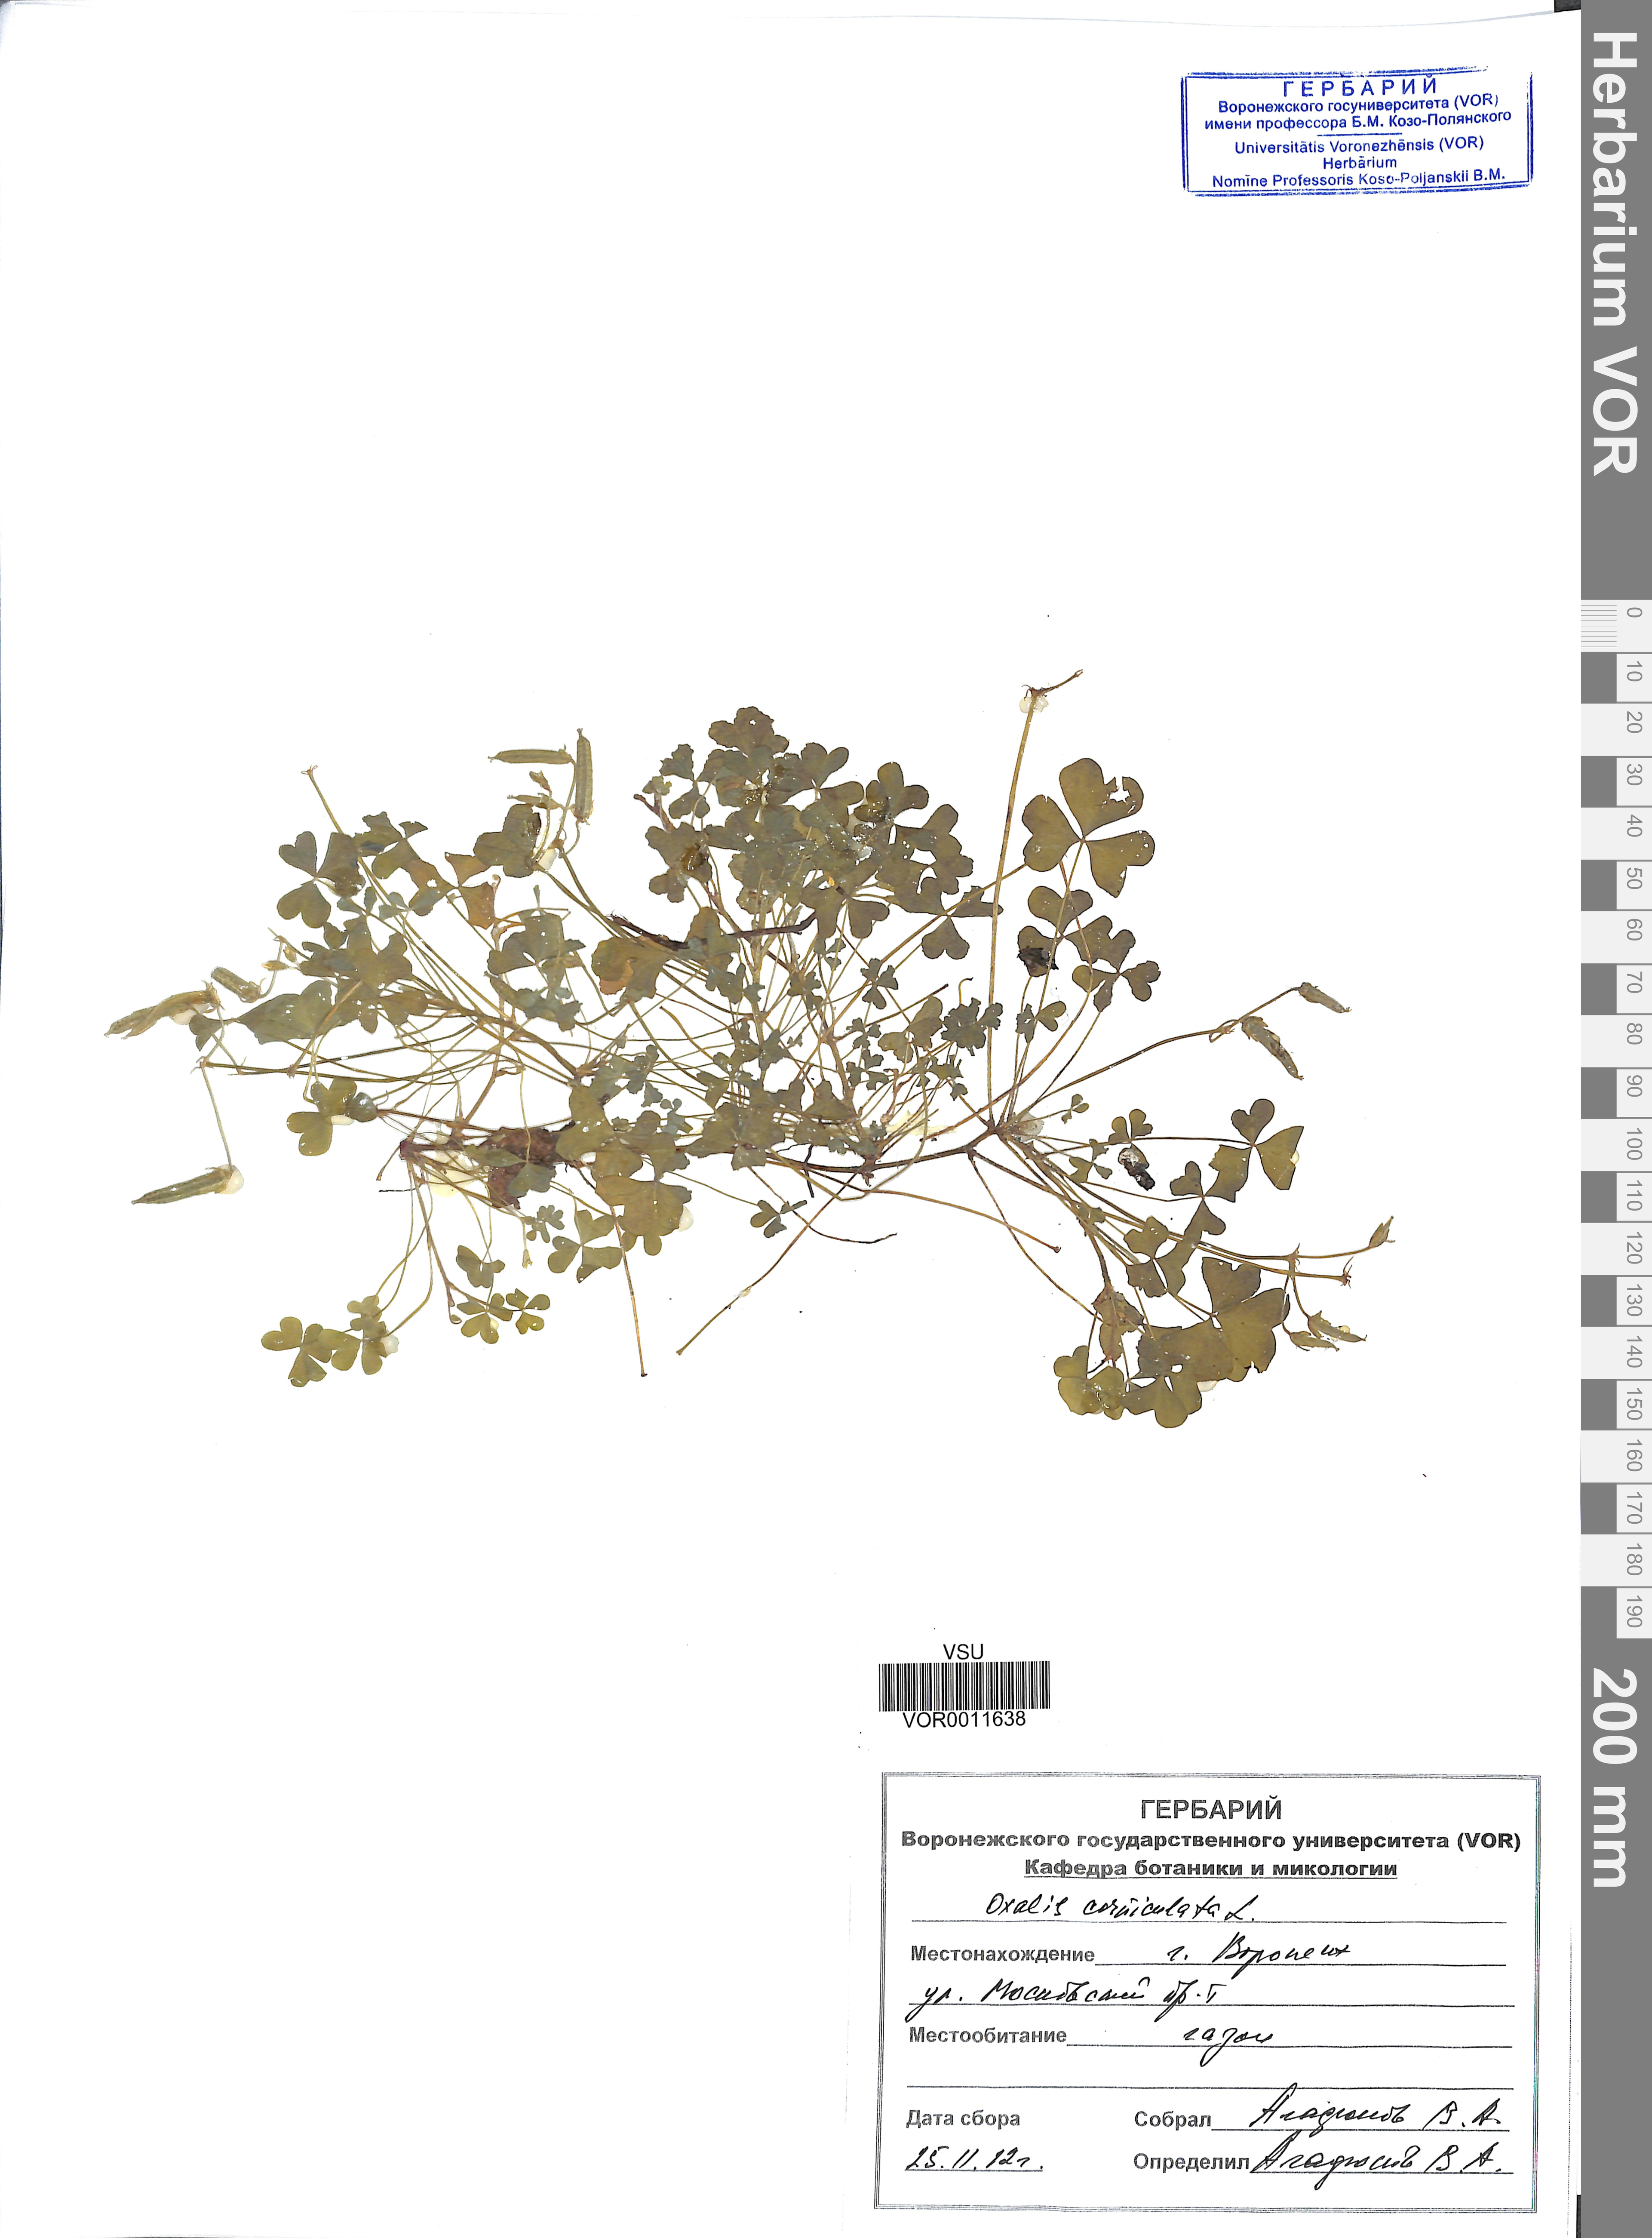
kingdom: Plantae
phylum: Tracheophyta
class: Magnoliopsida
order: Oxalidales
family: Oxalidaceae
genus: Oxalis
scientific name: Oxalis corniculata
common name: Procumbent yellow-sorrel
